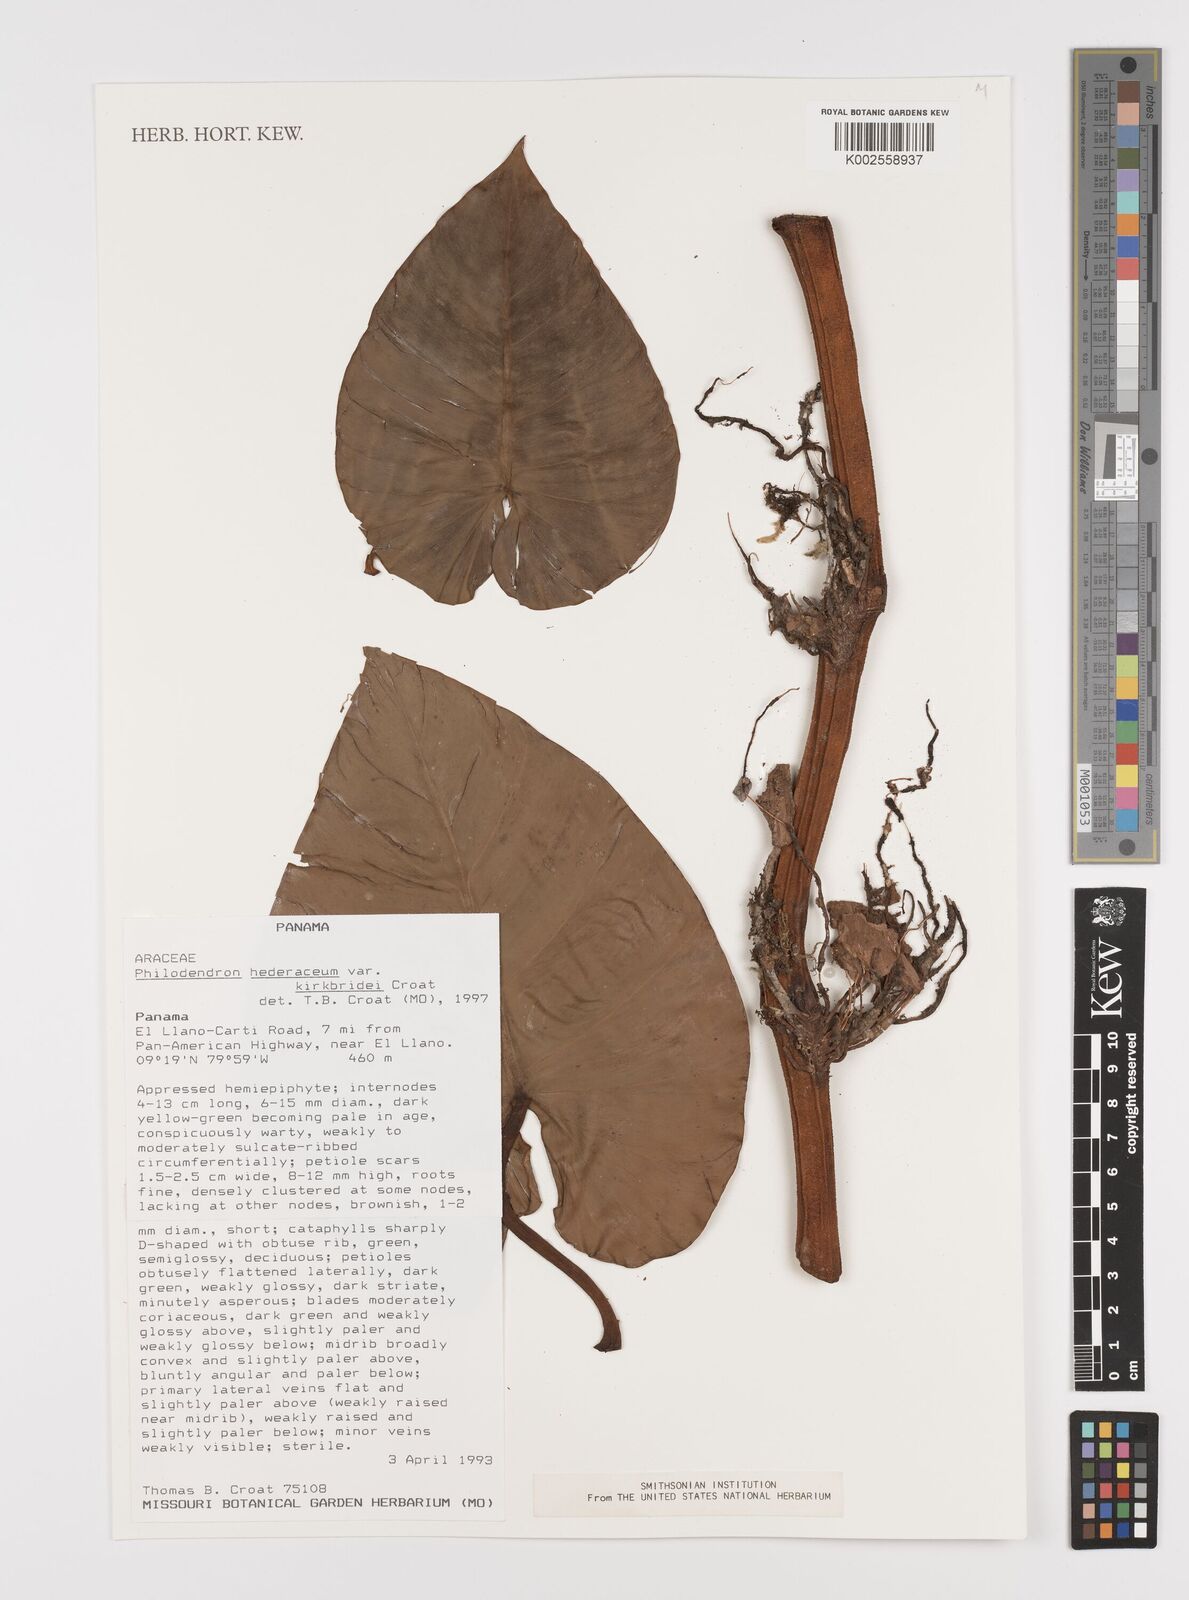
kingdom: Plantae
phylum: Tracheophyta
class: Liliopsida
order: Alismatales
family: Araceae
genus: Philodendron
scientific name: Philodendron hederaceum
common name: Vilevine
